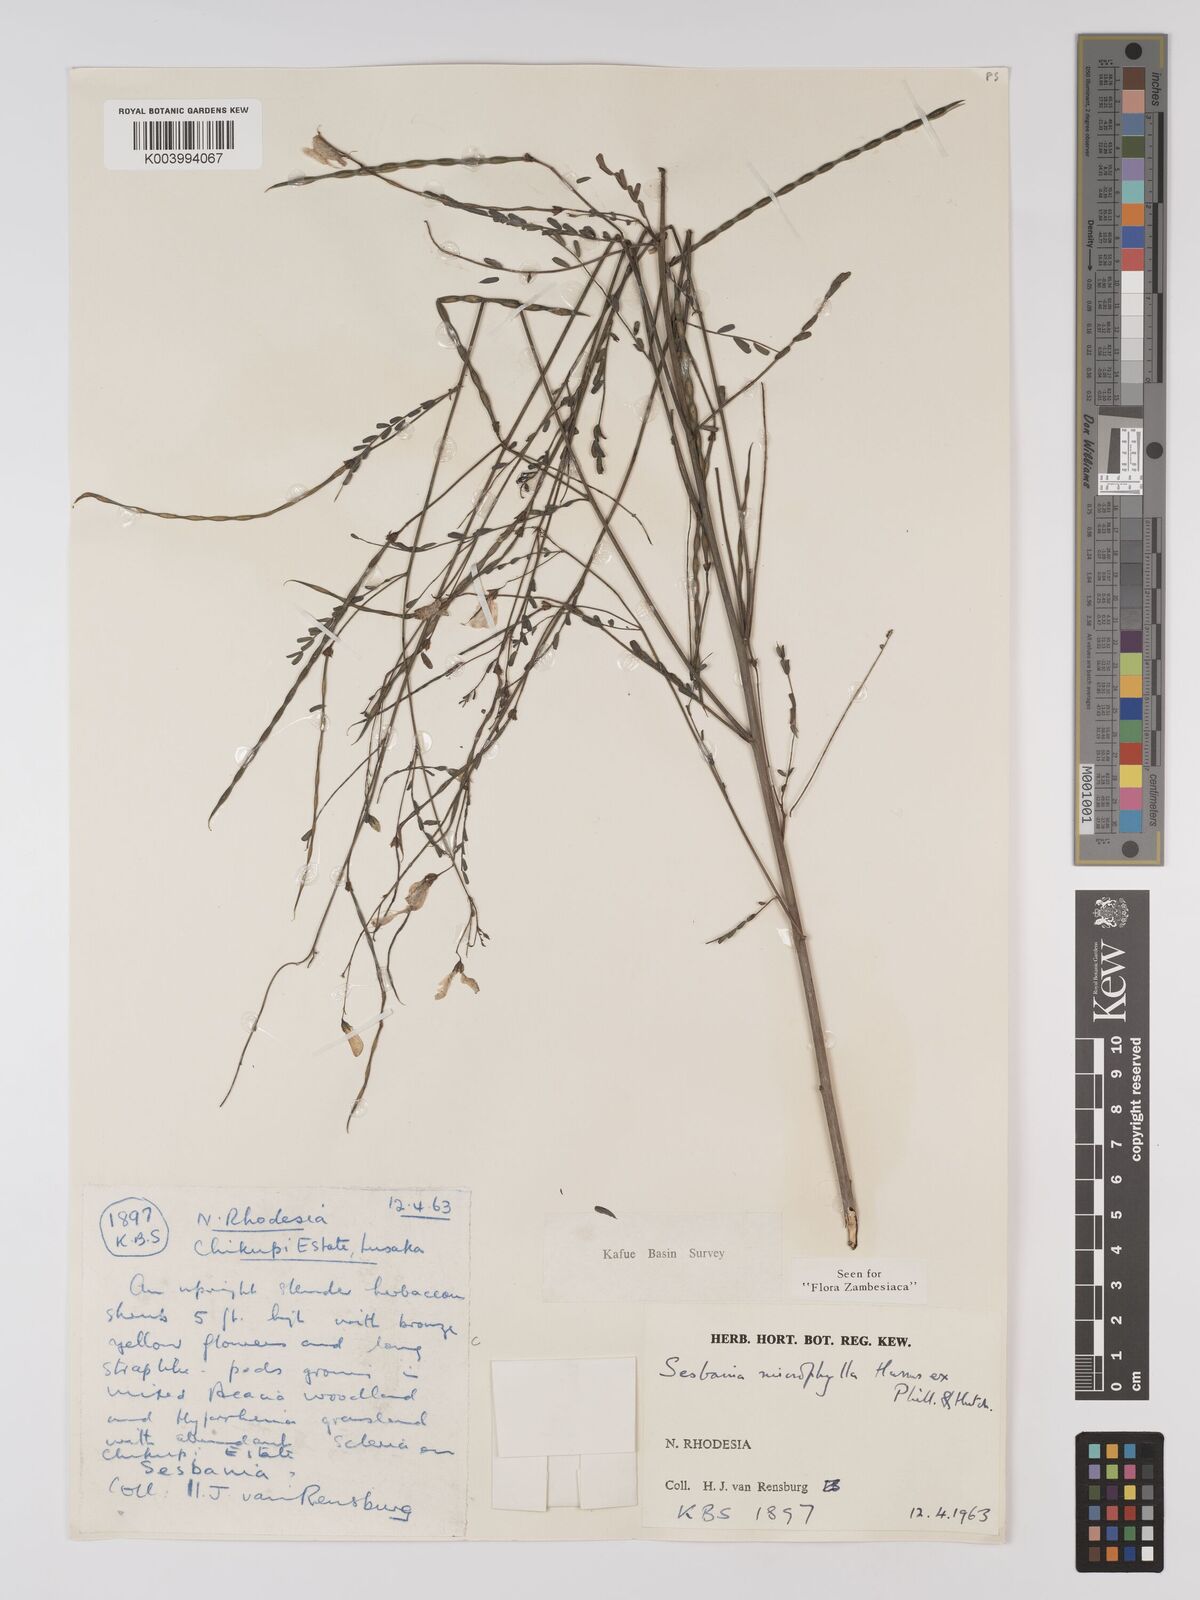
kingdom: Plantae
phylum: Tracheophyta
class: Magnoliopsida
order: Fabales
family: Fabaceae
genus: Sesbania
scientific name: Sesbania microphylla
